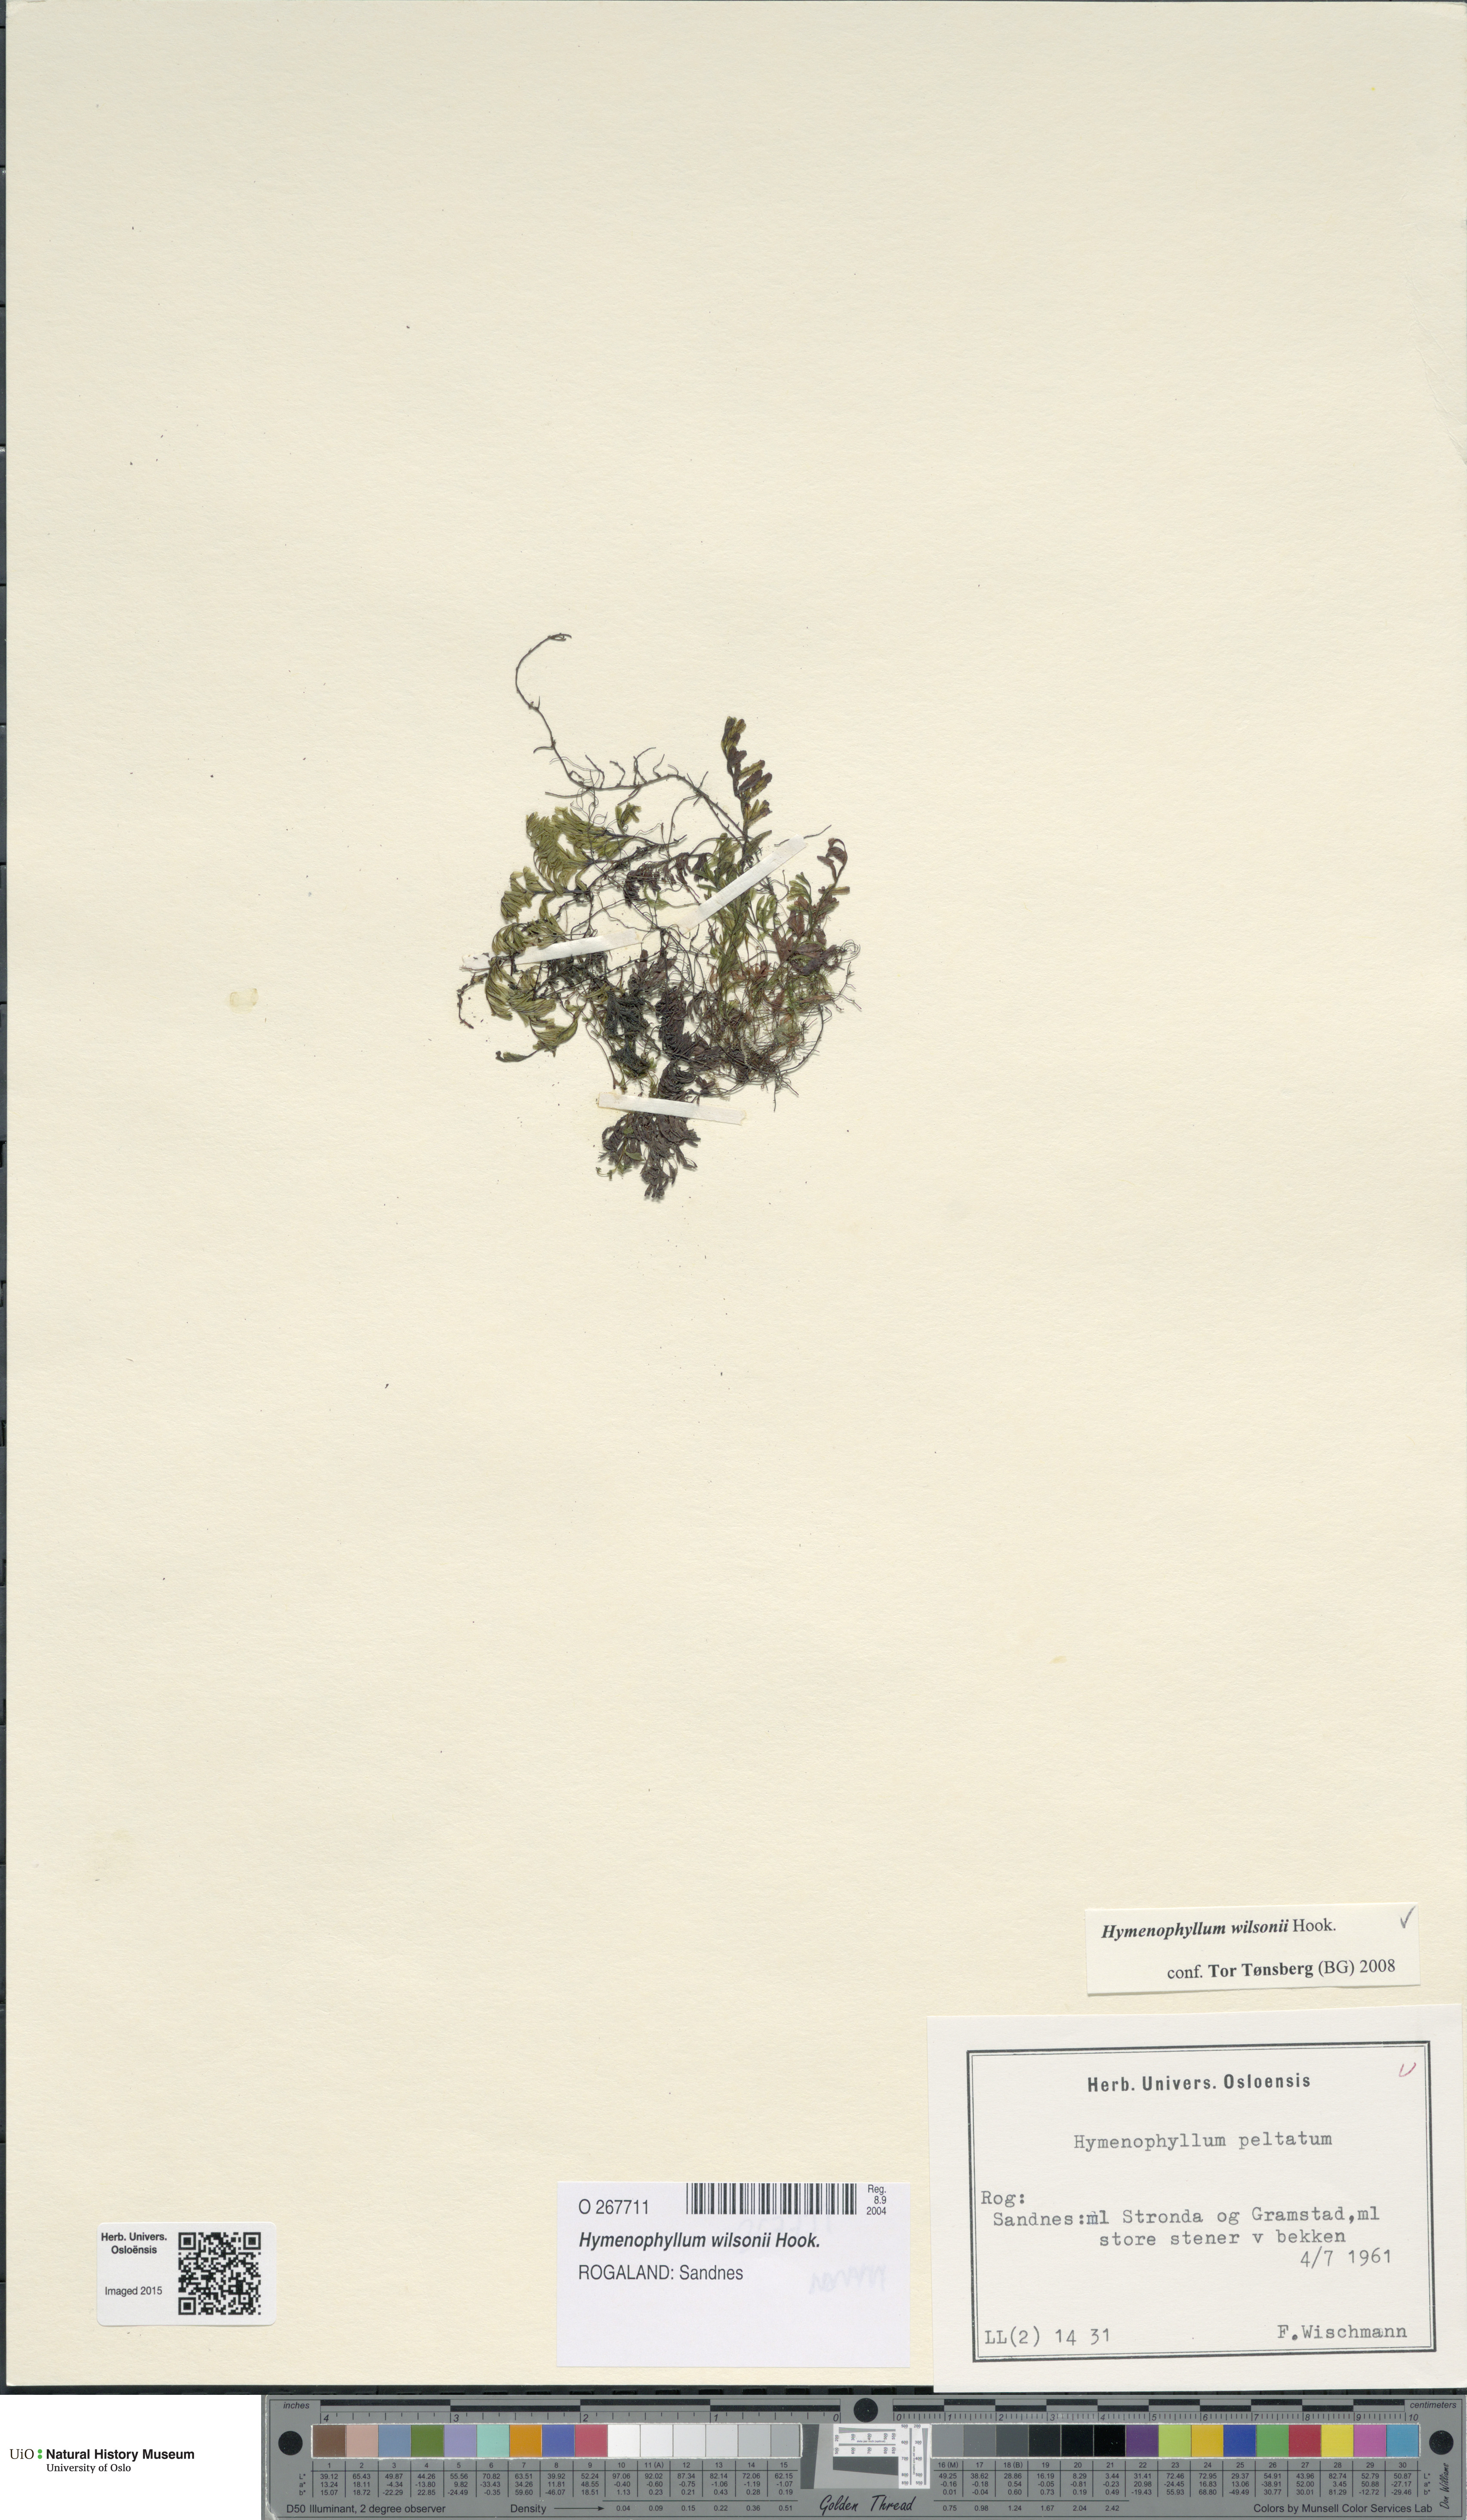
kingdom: Plantae
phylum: Tracheophyta
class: Polypodiopsida
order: Hymenophyllales
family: Hymenophyllaceae
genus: Hymenophyllum
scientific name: Hymenophyllum peltatum
